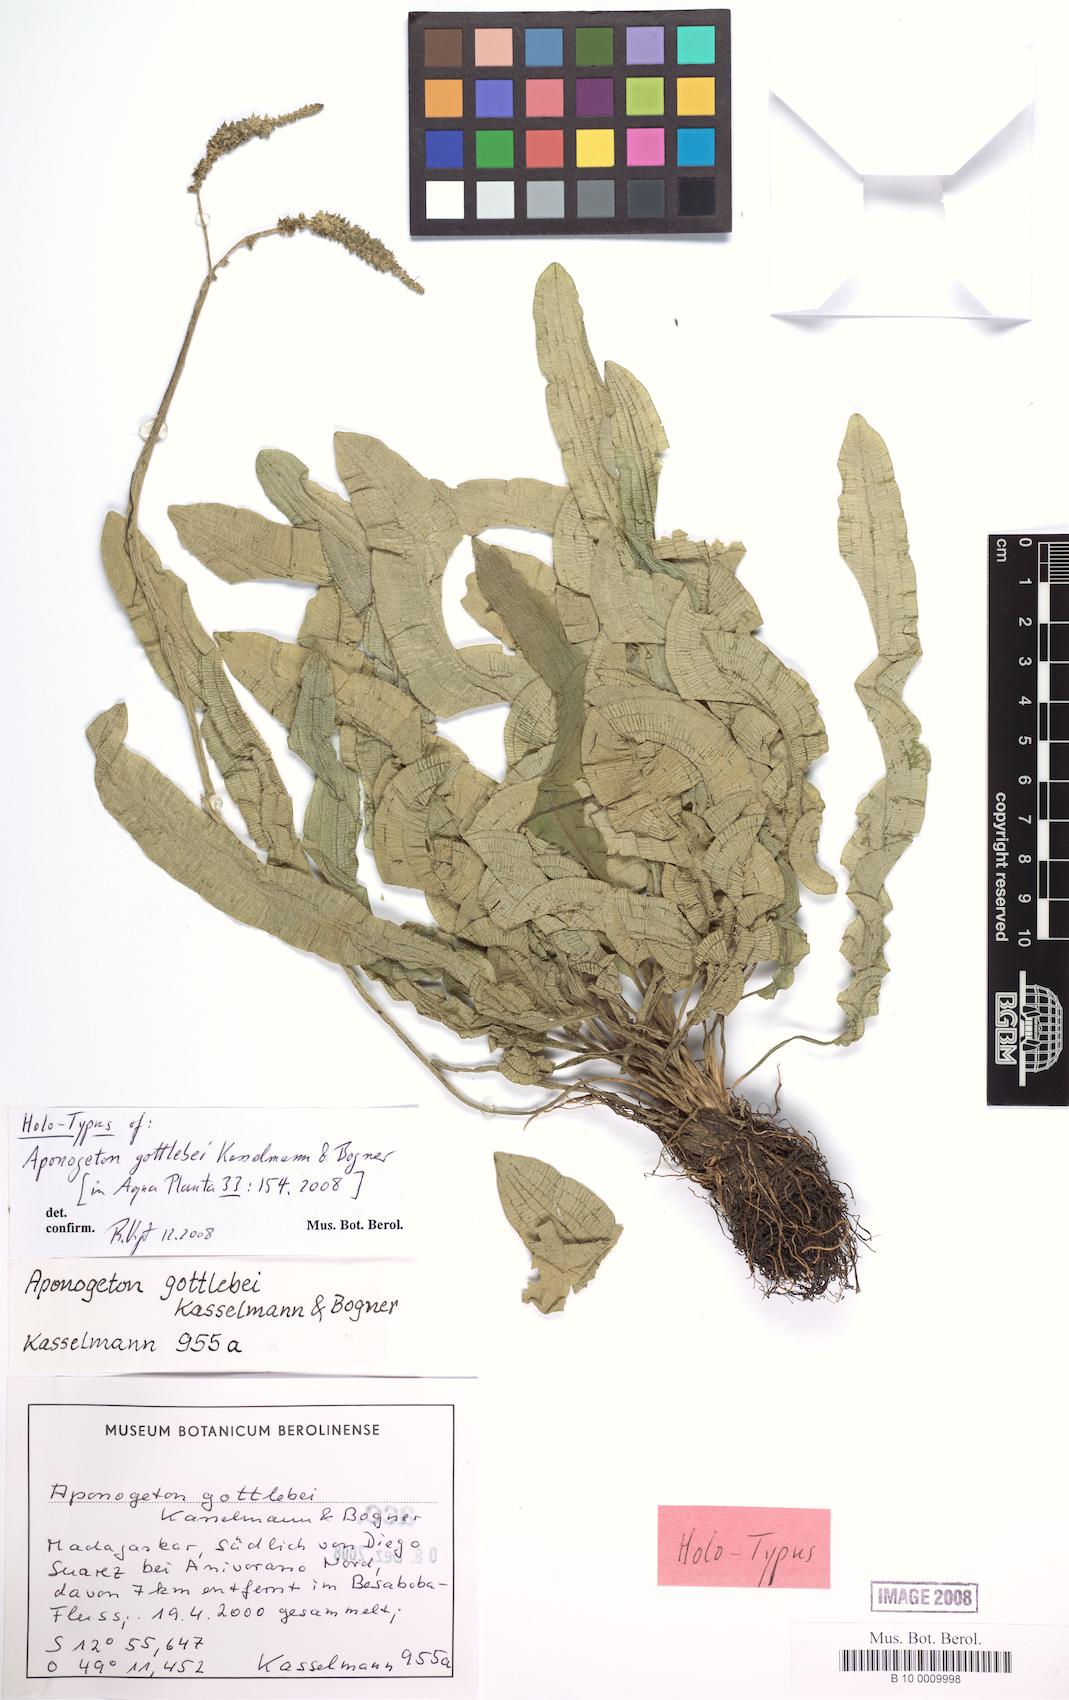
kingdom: Plantae
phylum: Tracheophyta
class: Liliopsida
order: Alismatales
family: Aponogetonaceae
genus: Aponogeton
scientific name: Aponogeton gottlebei
